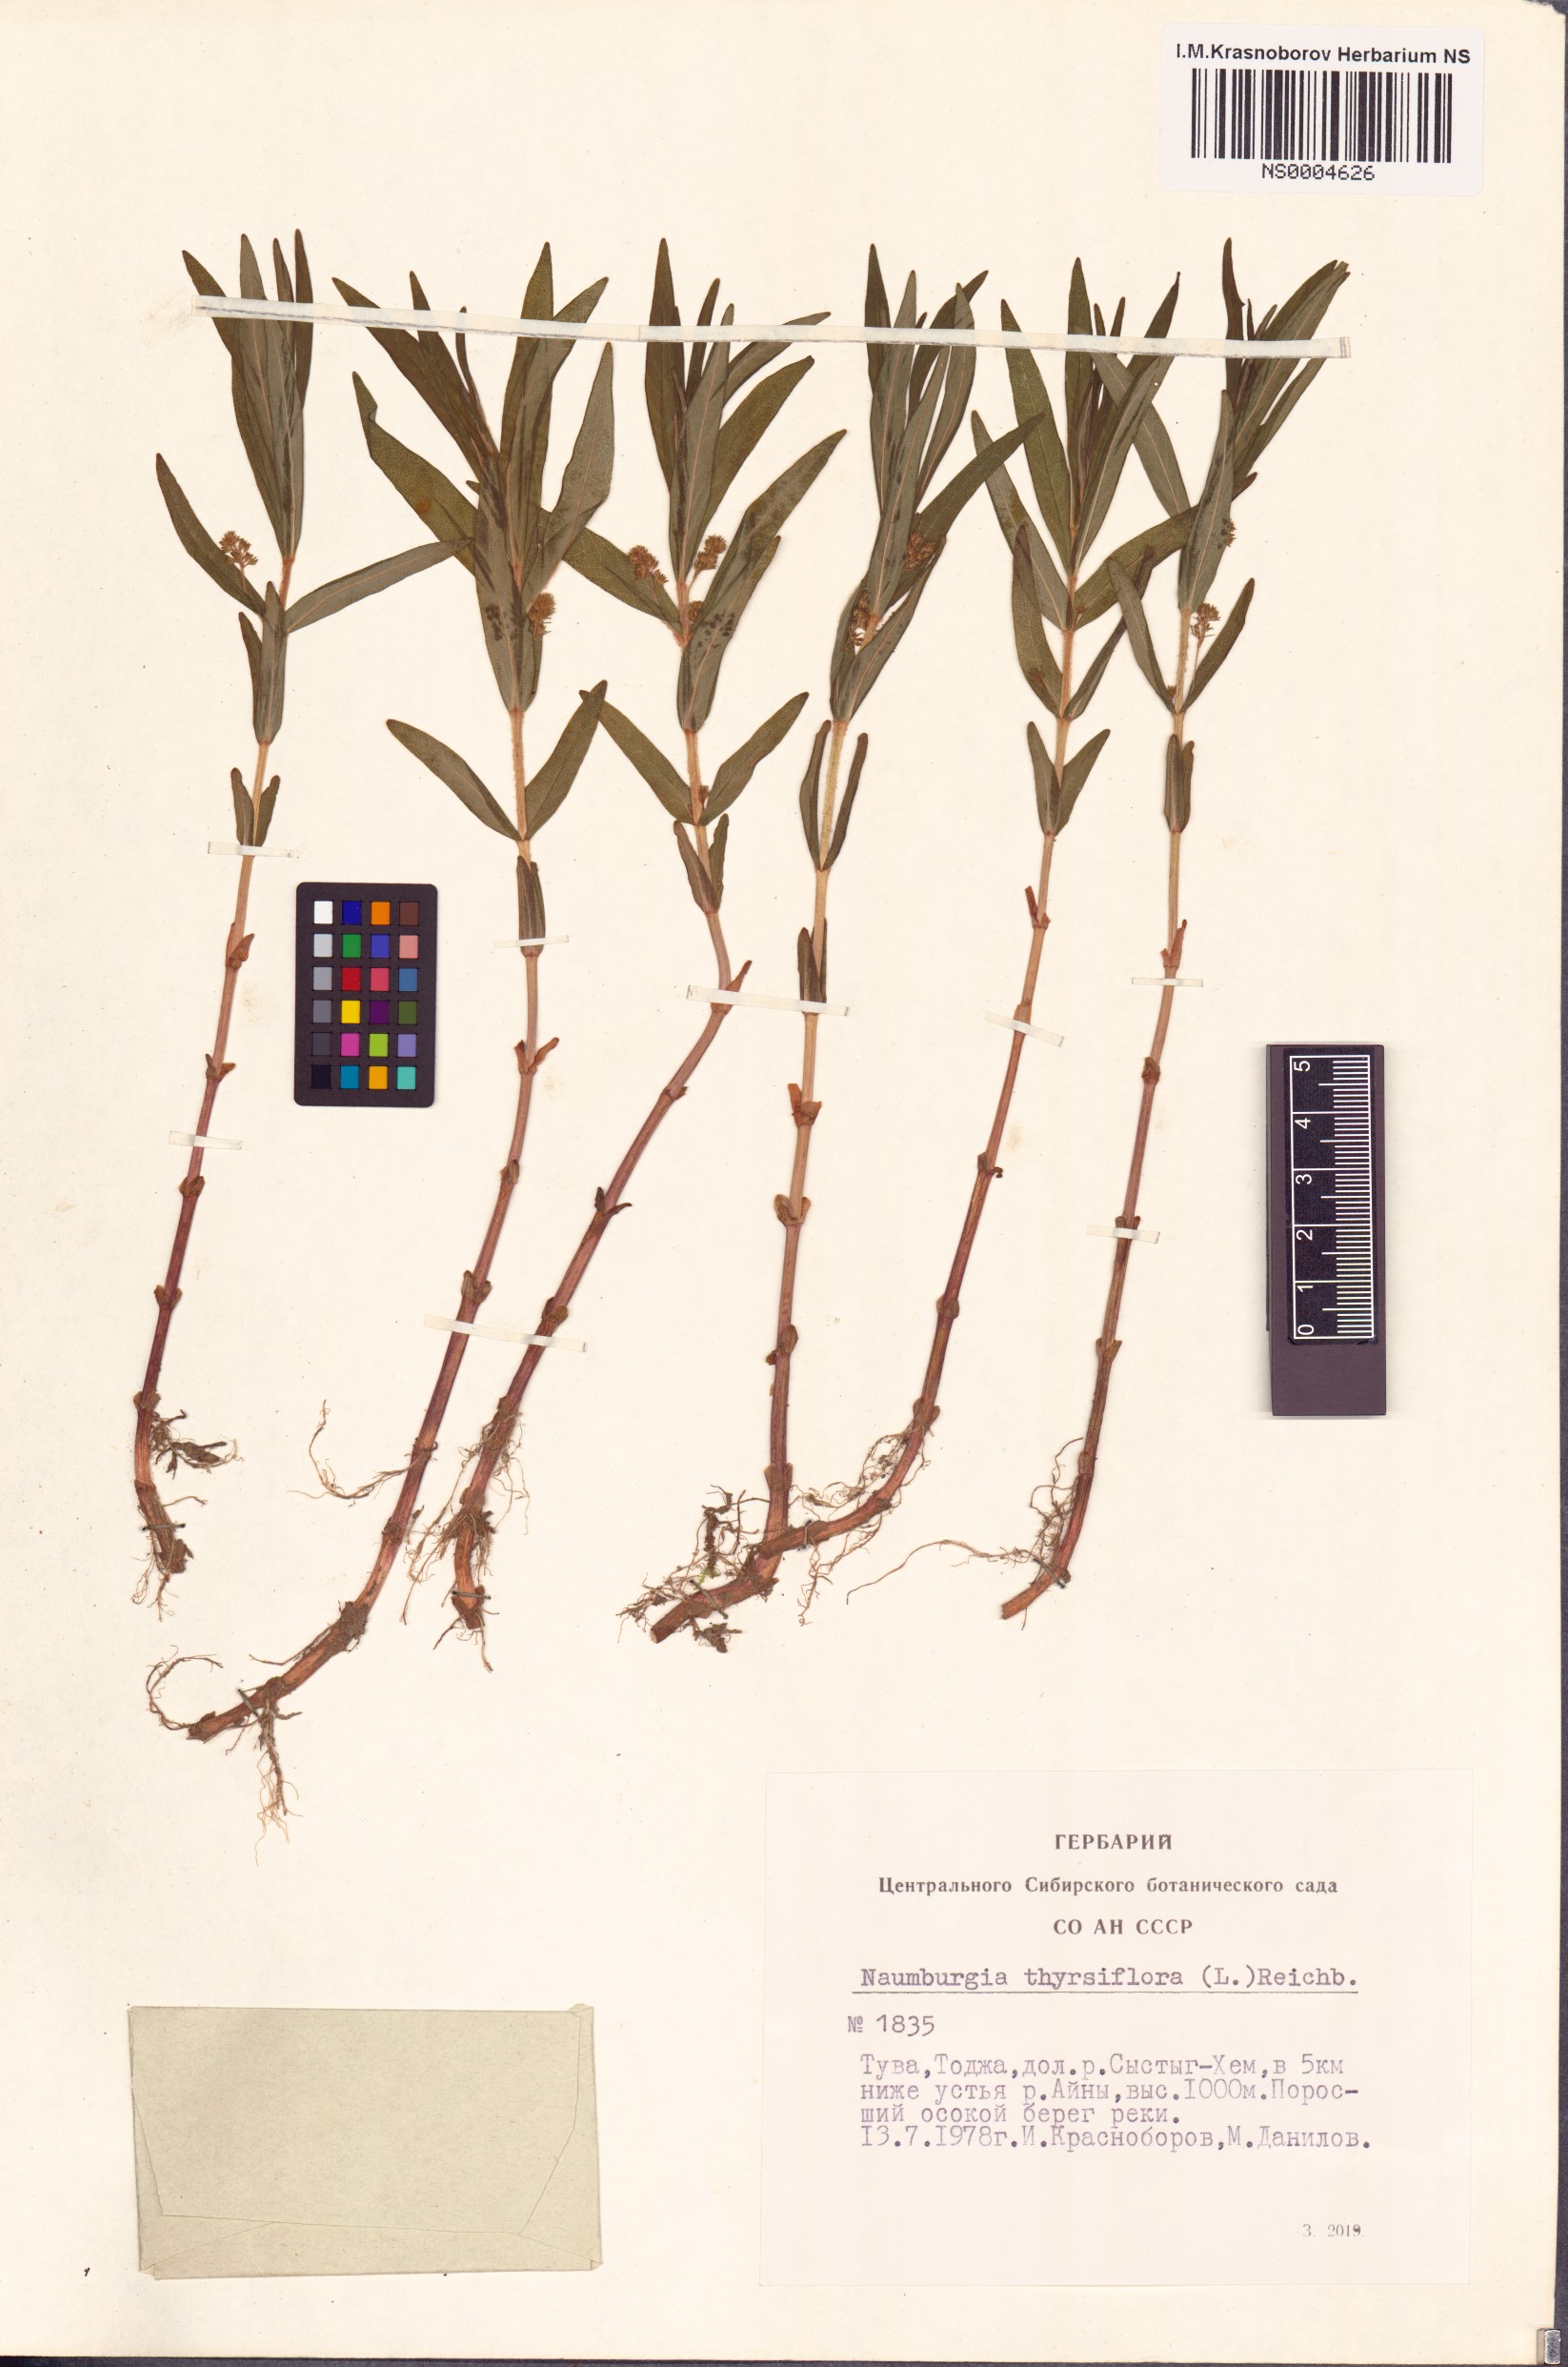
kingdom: Plantae
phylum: Tracheophyta
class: Magnoliopsida
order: Ericales
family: Primulaceae
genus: Lysimachia
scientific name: Lysimachia thyrsiflora
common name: Tufted loosestrife
